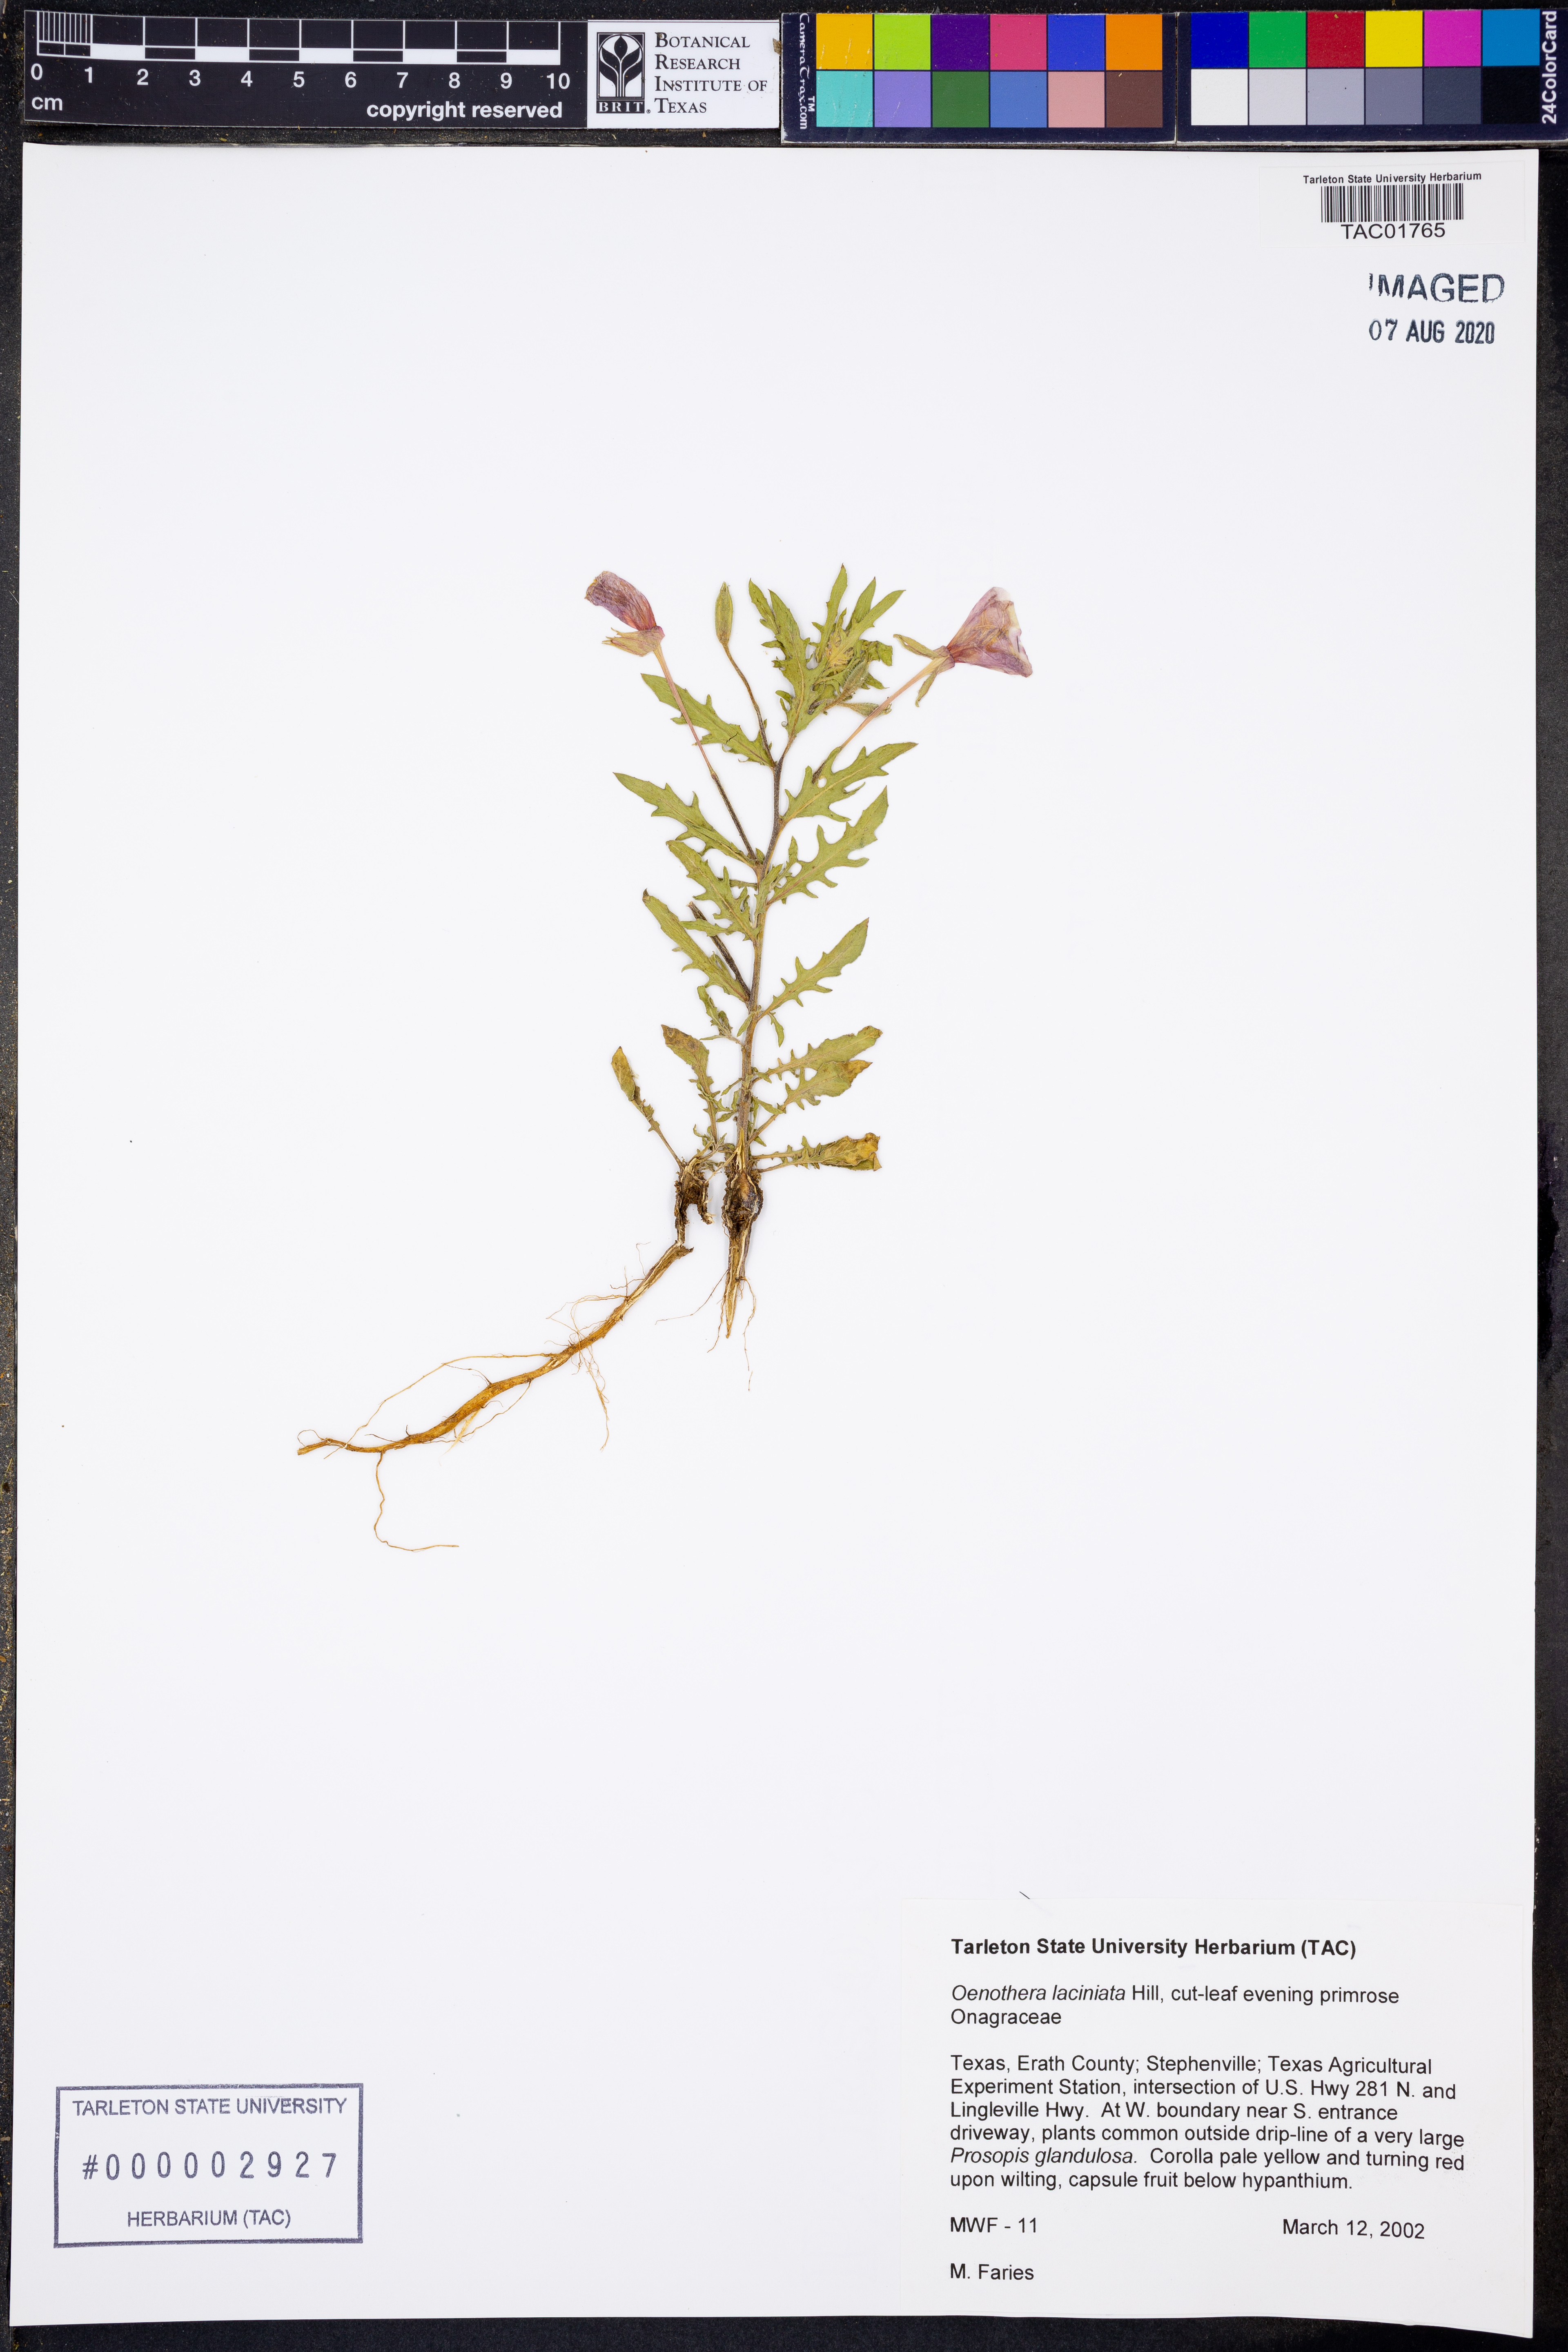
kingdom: Plantae
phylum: Tracheophyta
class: Magnoliopsida
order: Myrtales
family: Onagraceae
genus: Oenothera
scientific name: Oenothera laciniata
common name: Cut-leaved evening-primrose
